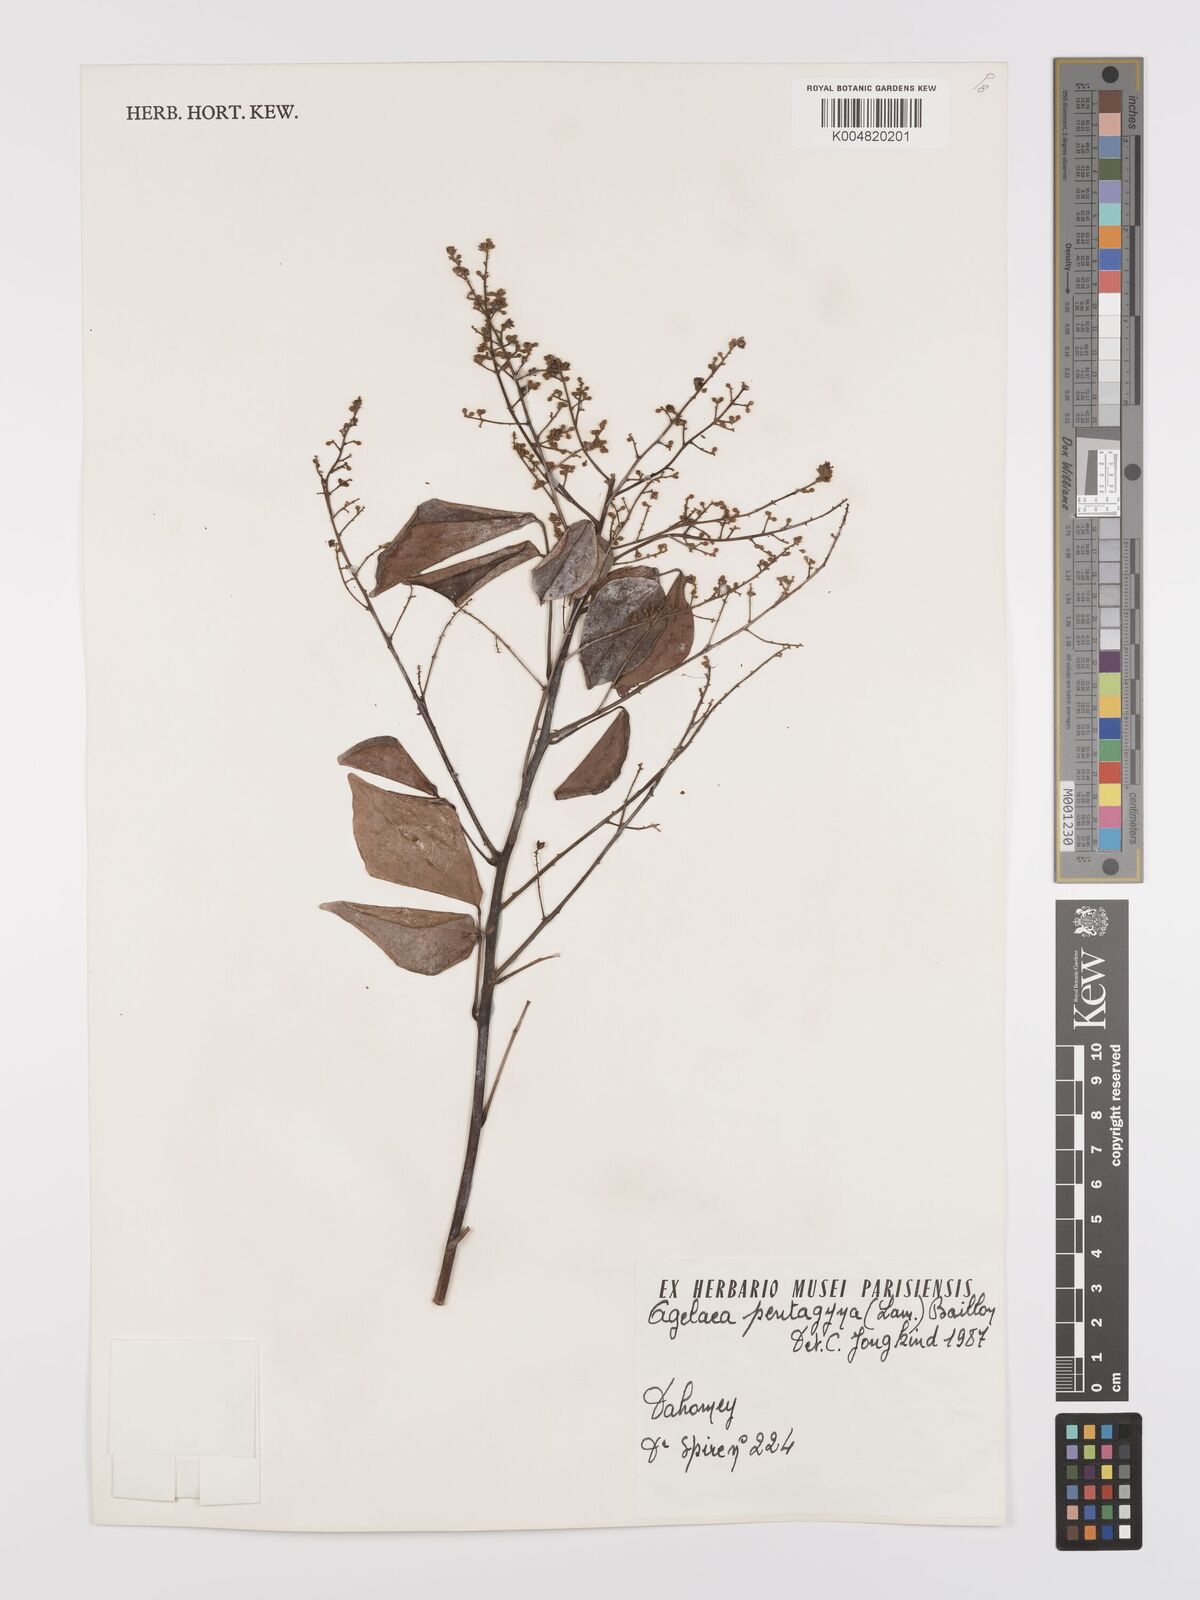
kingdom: Plantae
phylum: Tracheophyta
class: Magnoliopsida
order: Oxalidales
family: Connaraceae
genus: Agelaea
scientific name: Agelaea pentagyna
